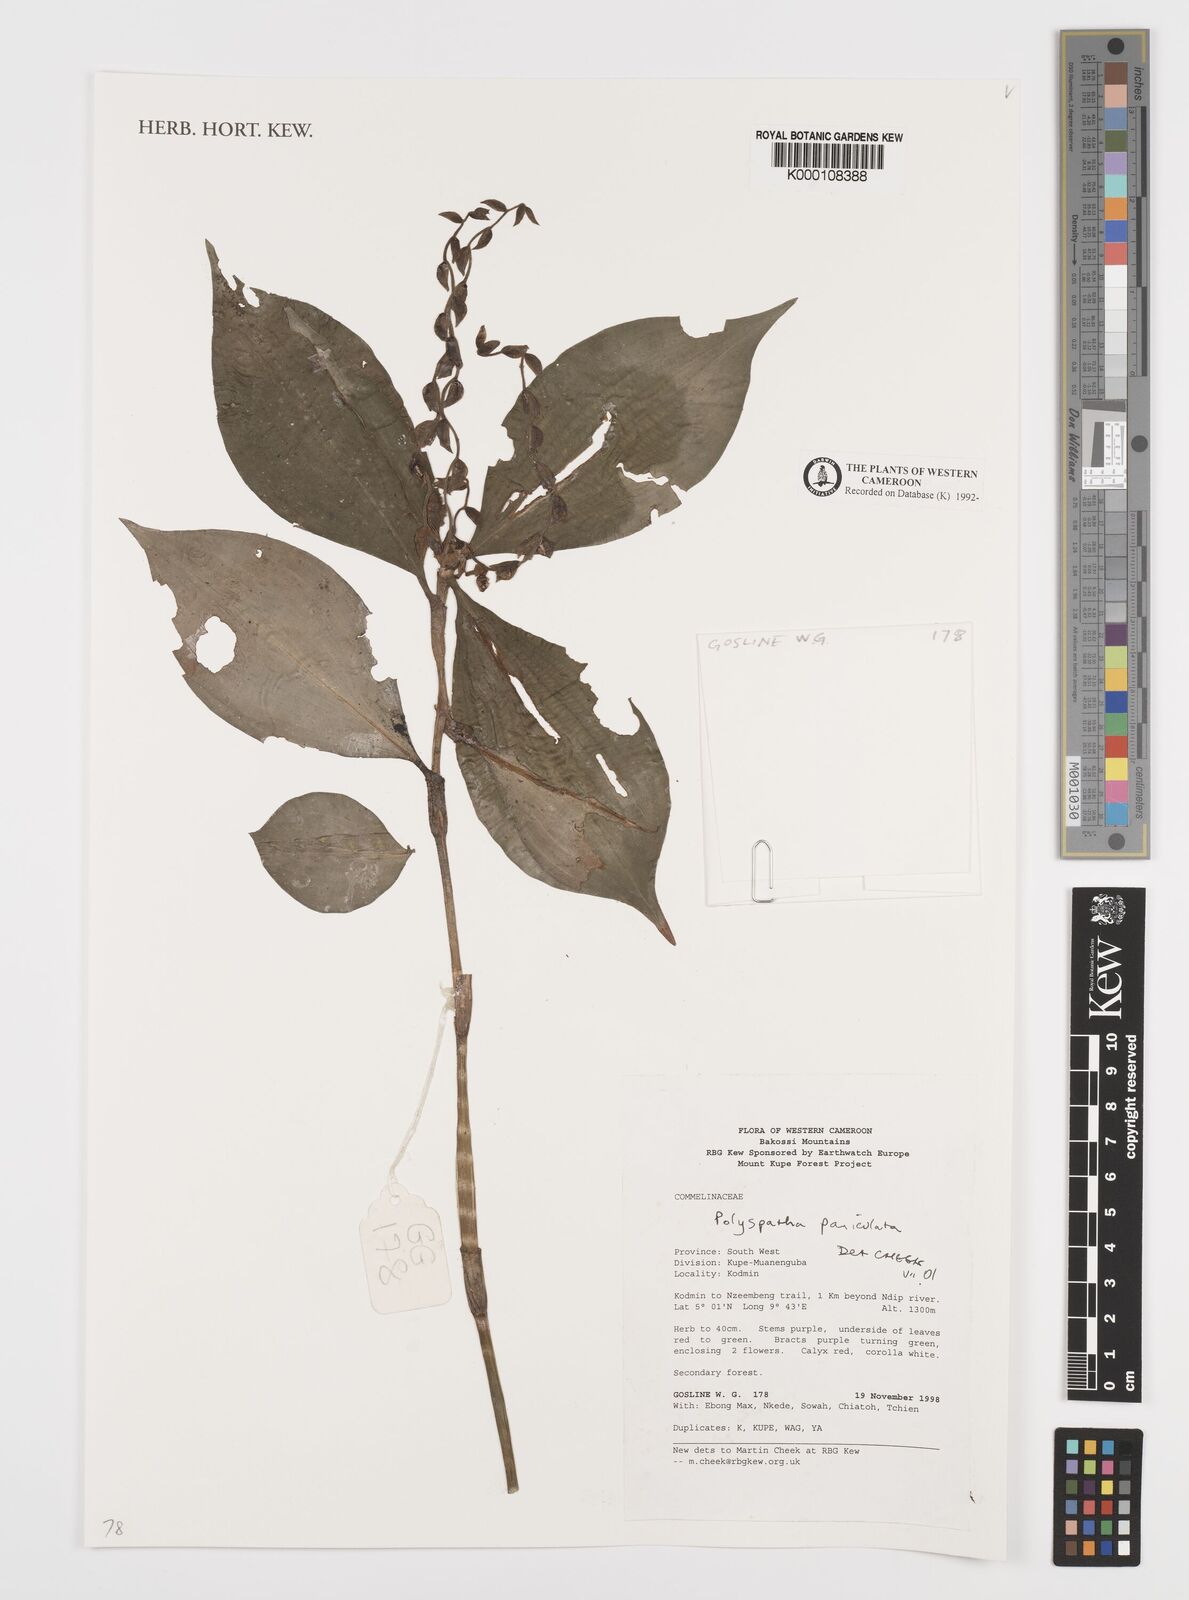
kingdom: Plantae
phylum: Tracheophyta
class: Liliopsida
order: Commelinales
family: Commelinaceae
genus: Polyspatha
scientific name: Polyspatha paniculata
